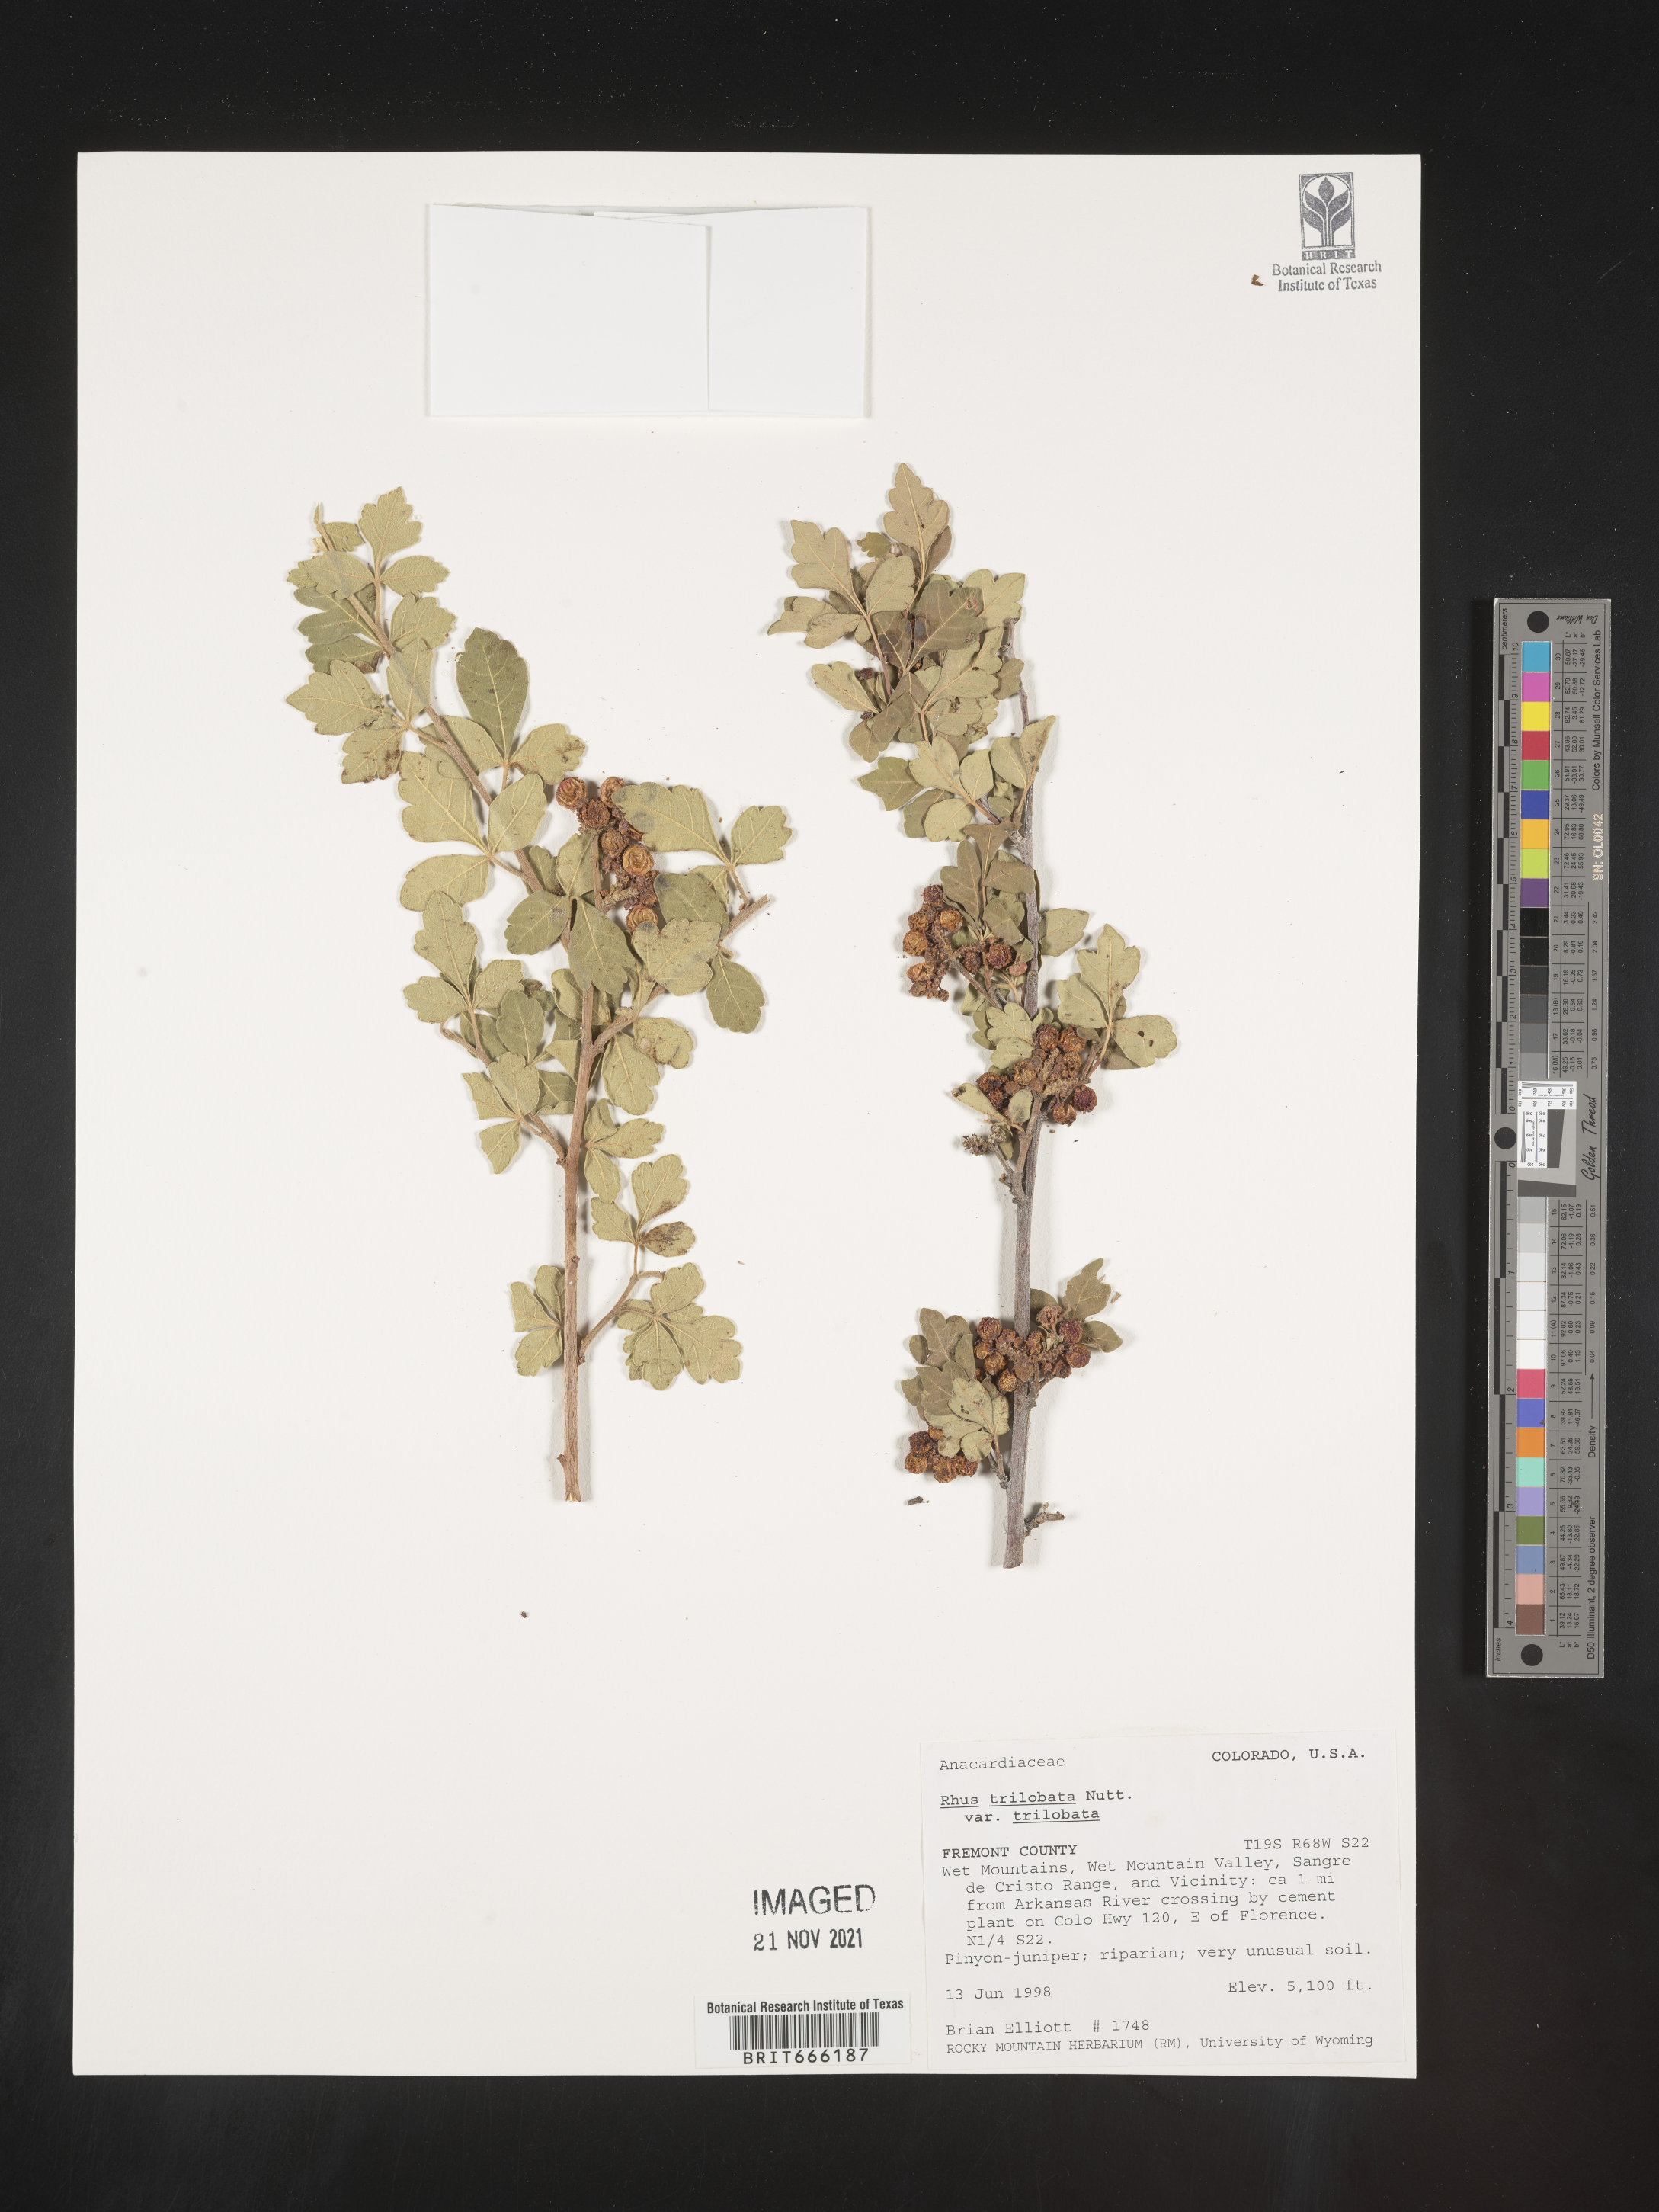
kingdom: Plantae
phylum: Tracheophyta
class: Magnoliopsida
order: Sapindales
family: Anacardiaceae
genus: Rhus
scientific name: Rhus trilobata
